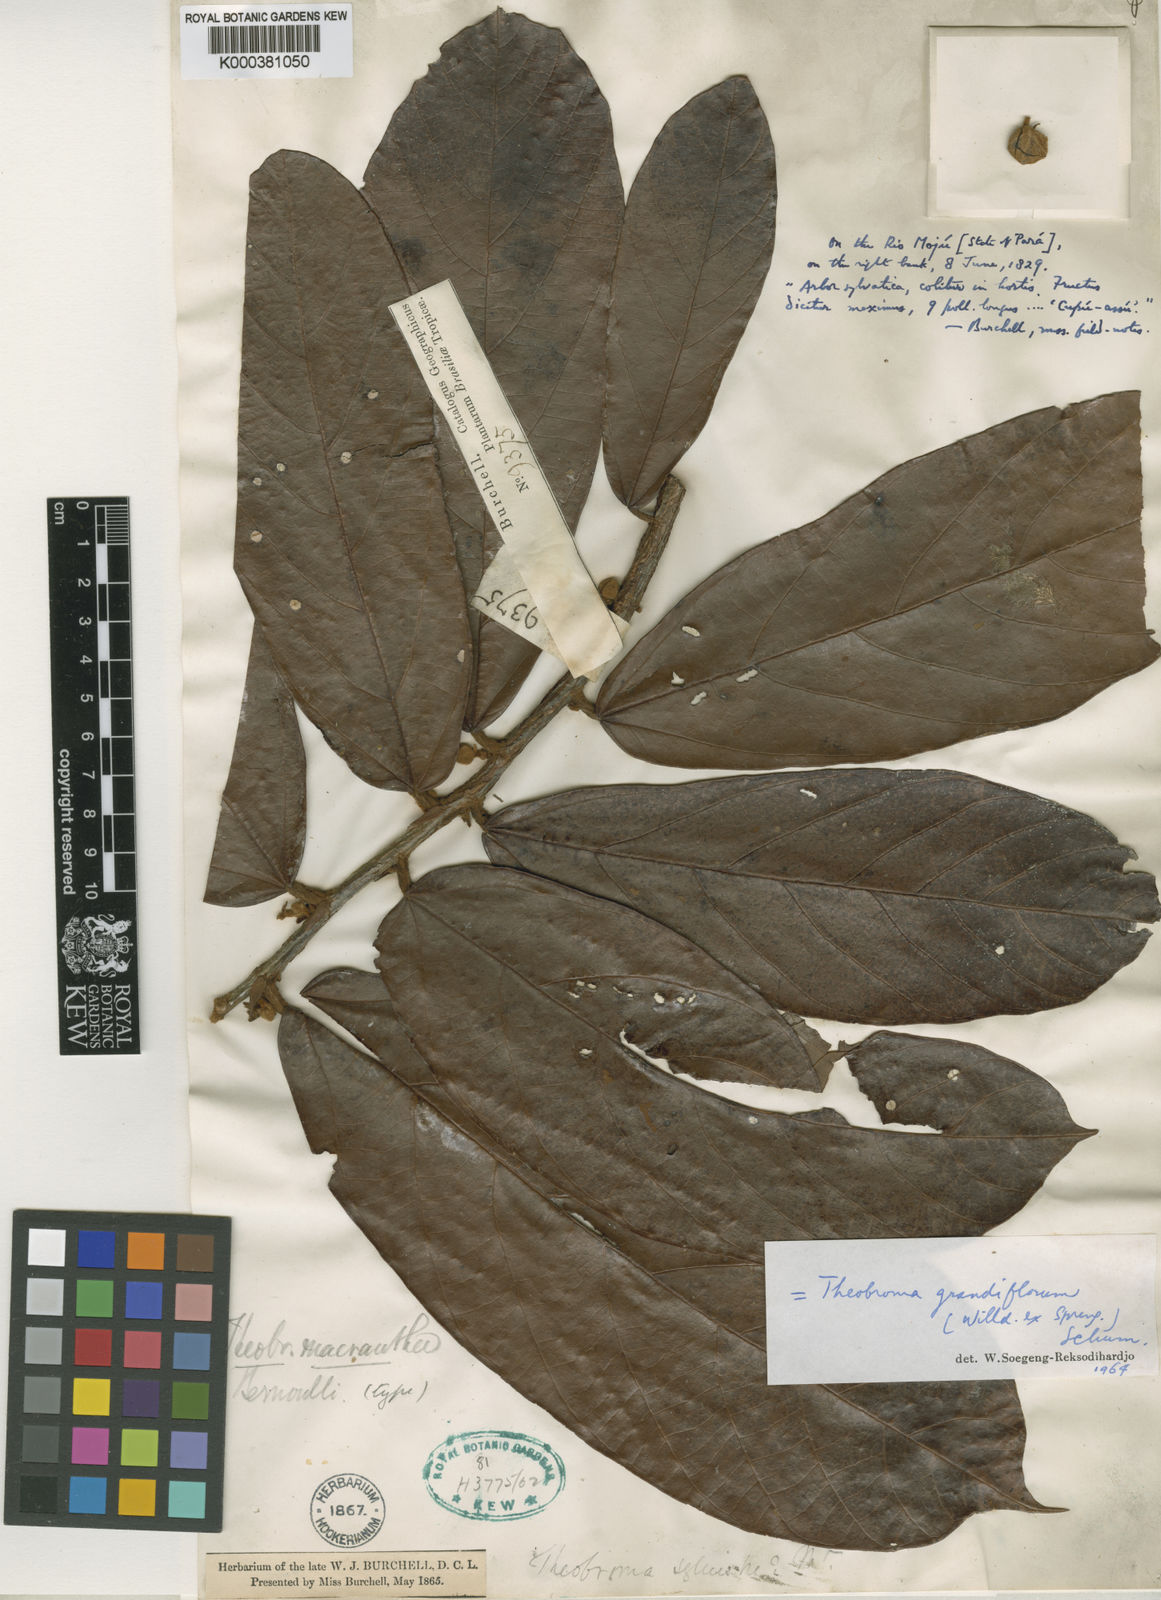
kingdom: Plantae
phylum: Tracheophyta
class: Magnoliopsida
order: Malvales
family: Malvaceae
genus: Theobroma
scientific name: Theobroma grandiflorum
